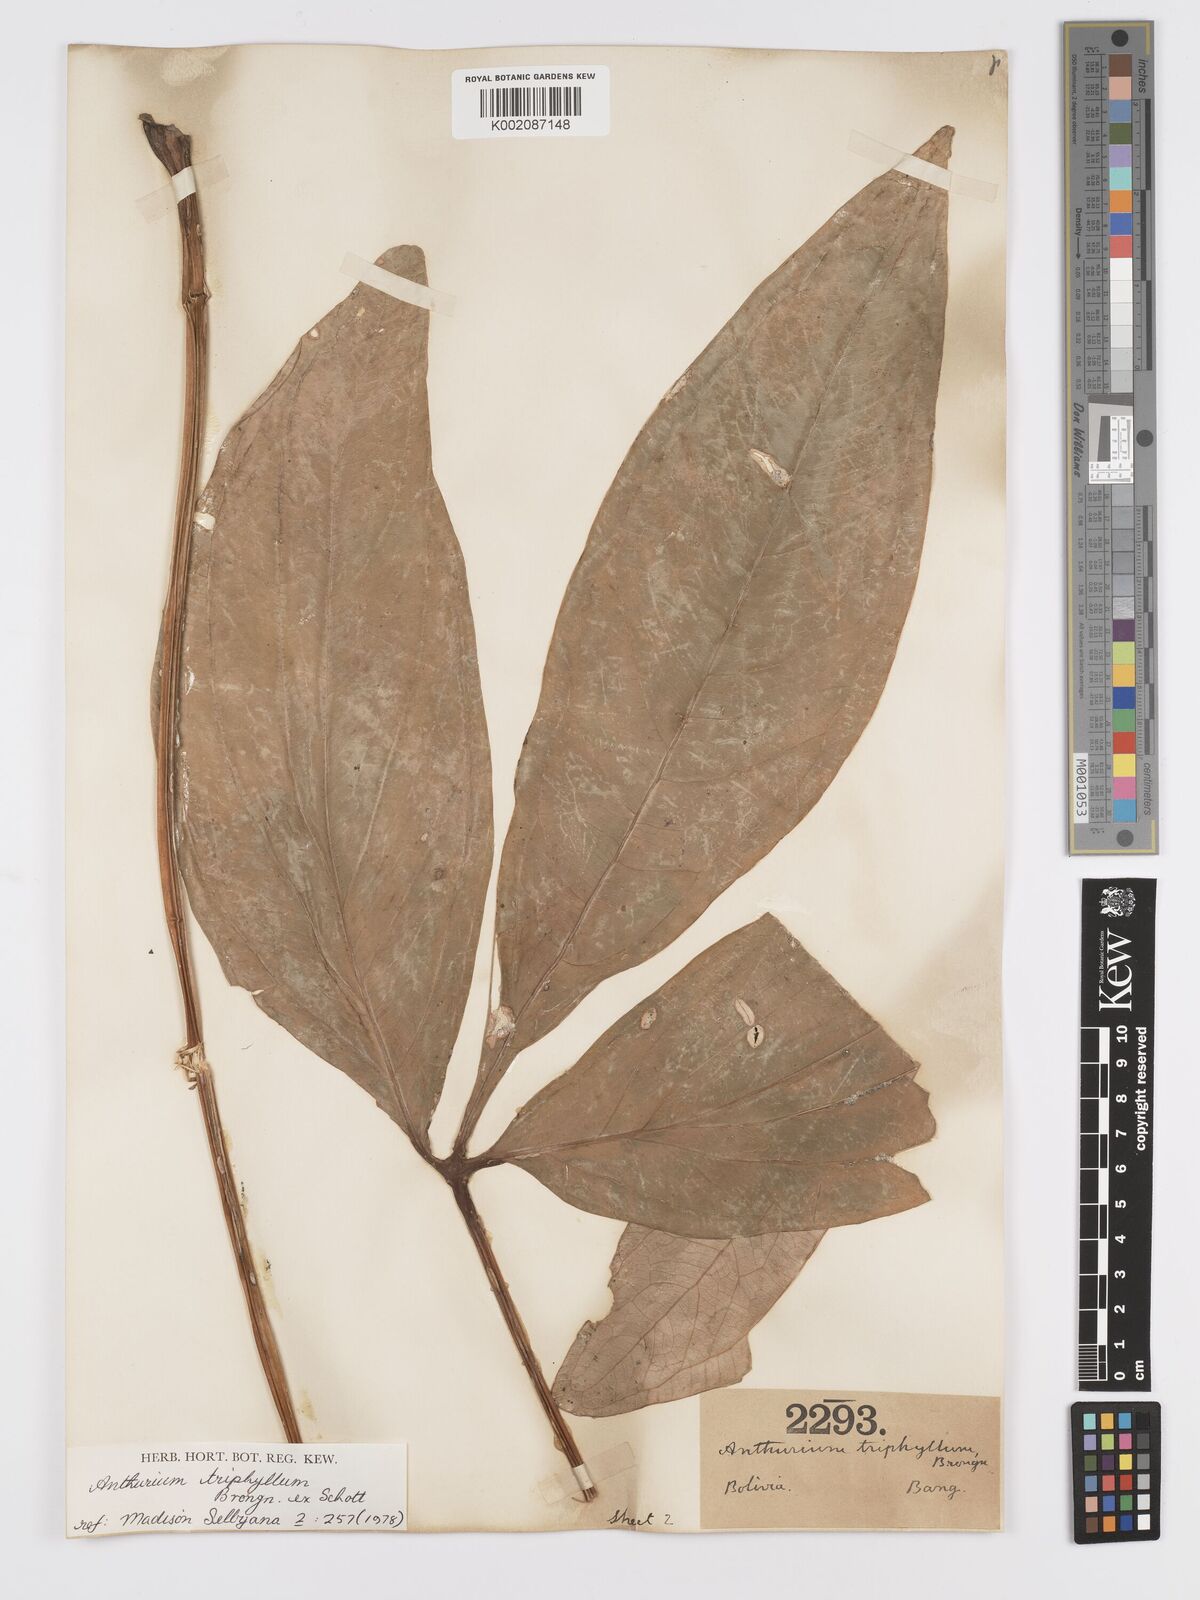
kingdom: Plantae
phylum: Tracheophyta
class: Liliopsida
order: Alismatales
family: Araceae
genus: Anthurium
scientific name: Anthurium triphyllum
